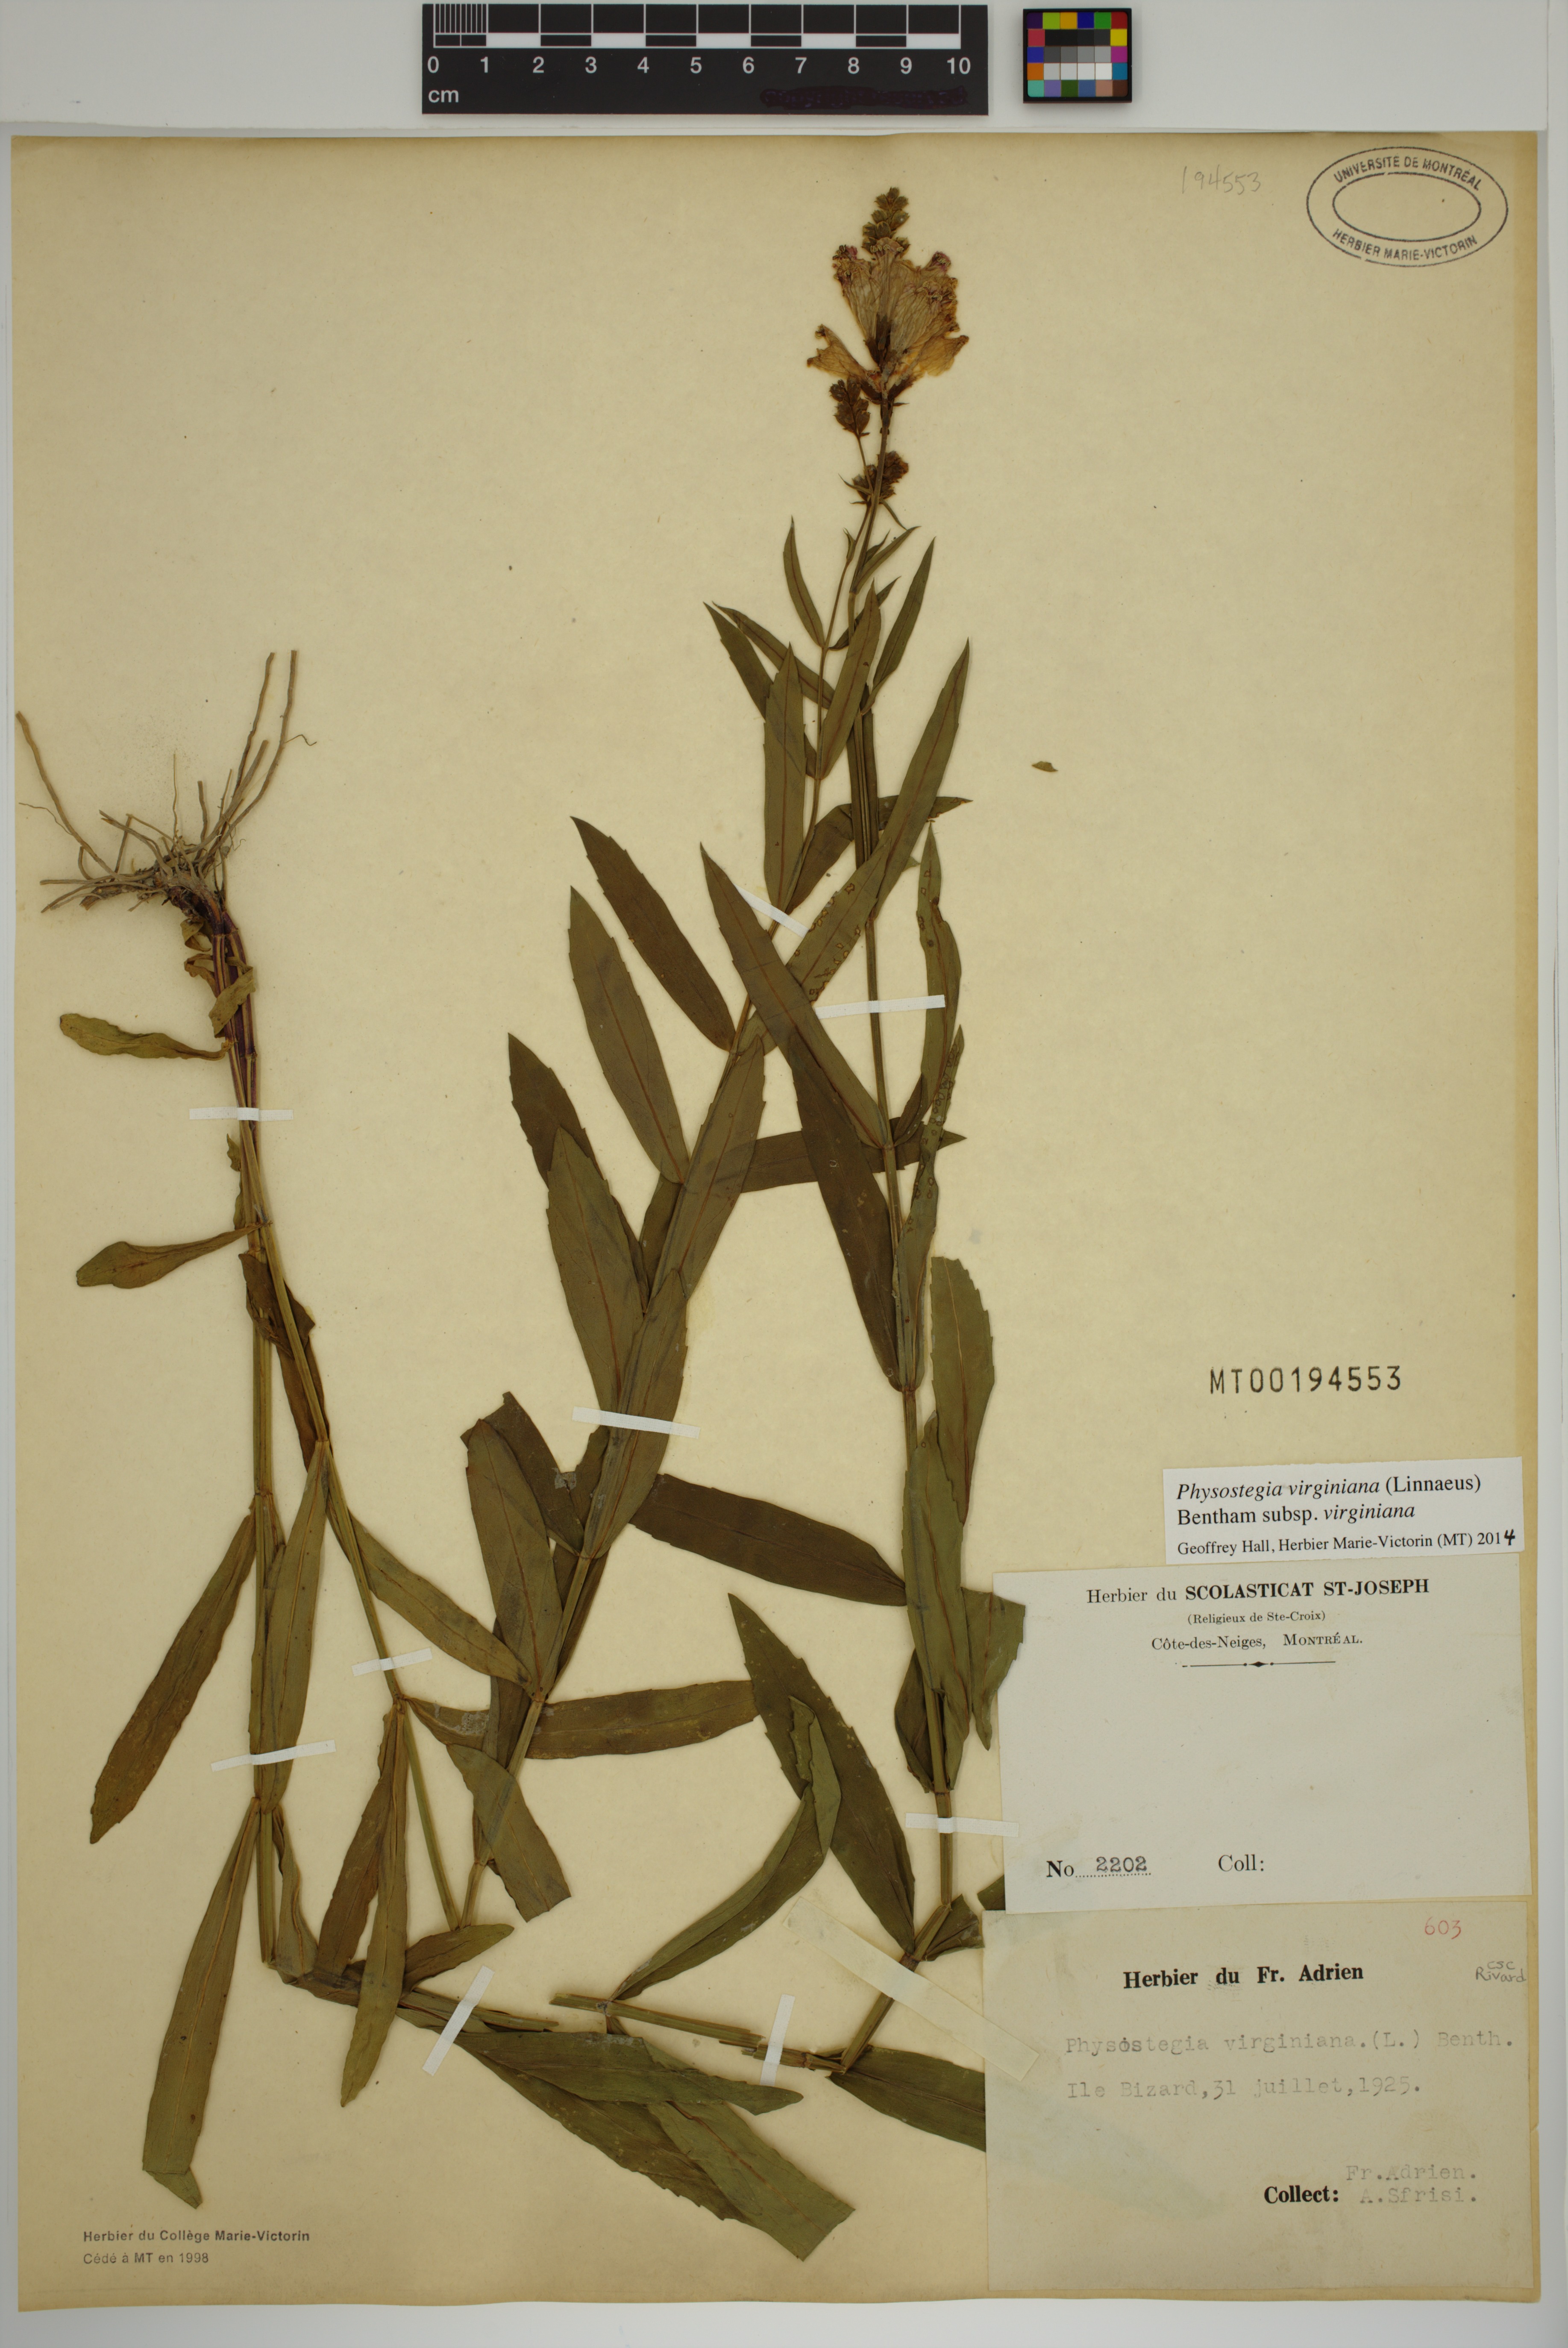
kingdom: Plantae
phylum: Tracheophyta
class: Magnoliopsida
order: Lamiales
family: Lamiaceae
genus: Physostegia
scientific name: Physostegia virginiana
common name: Obedient-plant
